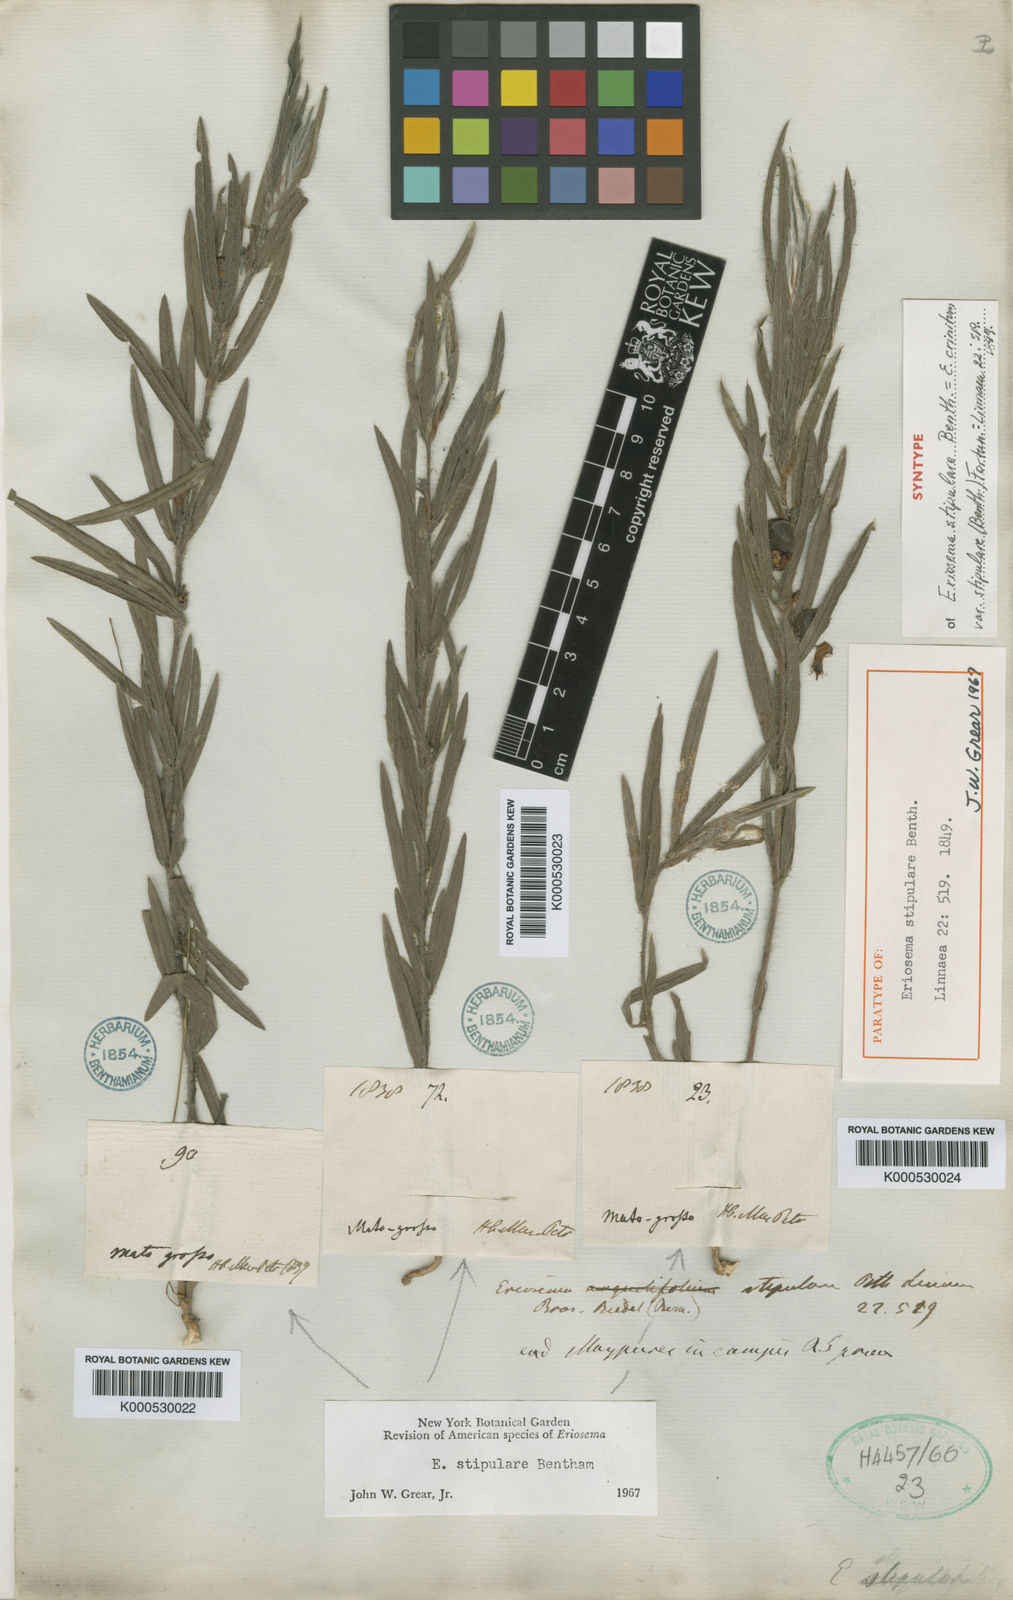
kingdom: Plantae
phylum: Tracheophyta
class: Magnoliopsida
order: Fabales
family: Fabaceae
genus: Eriosema
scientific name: Eriosema crinitum
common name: Sand pea
